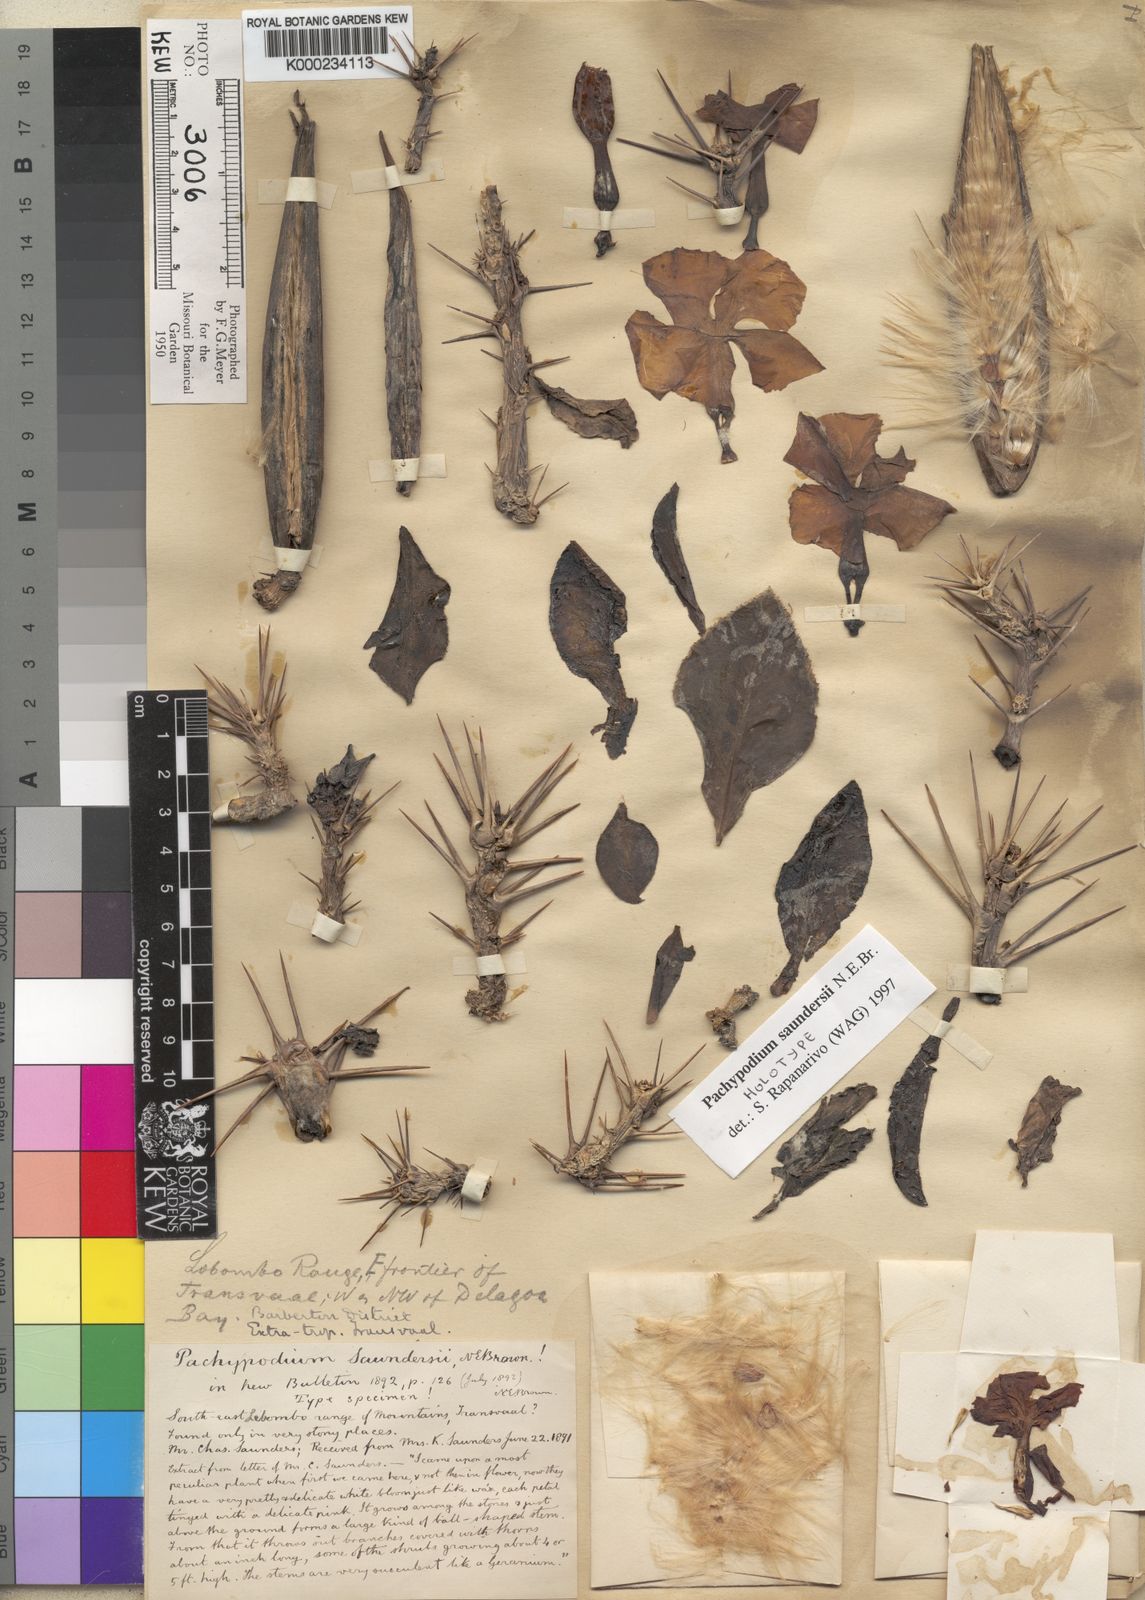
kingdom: Plantae
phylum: Tracheophyta
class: Magnoliopsida
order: Gentianales
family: Apocynaceae
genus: Pachypodium
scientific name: Pachypodium saundersii
